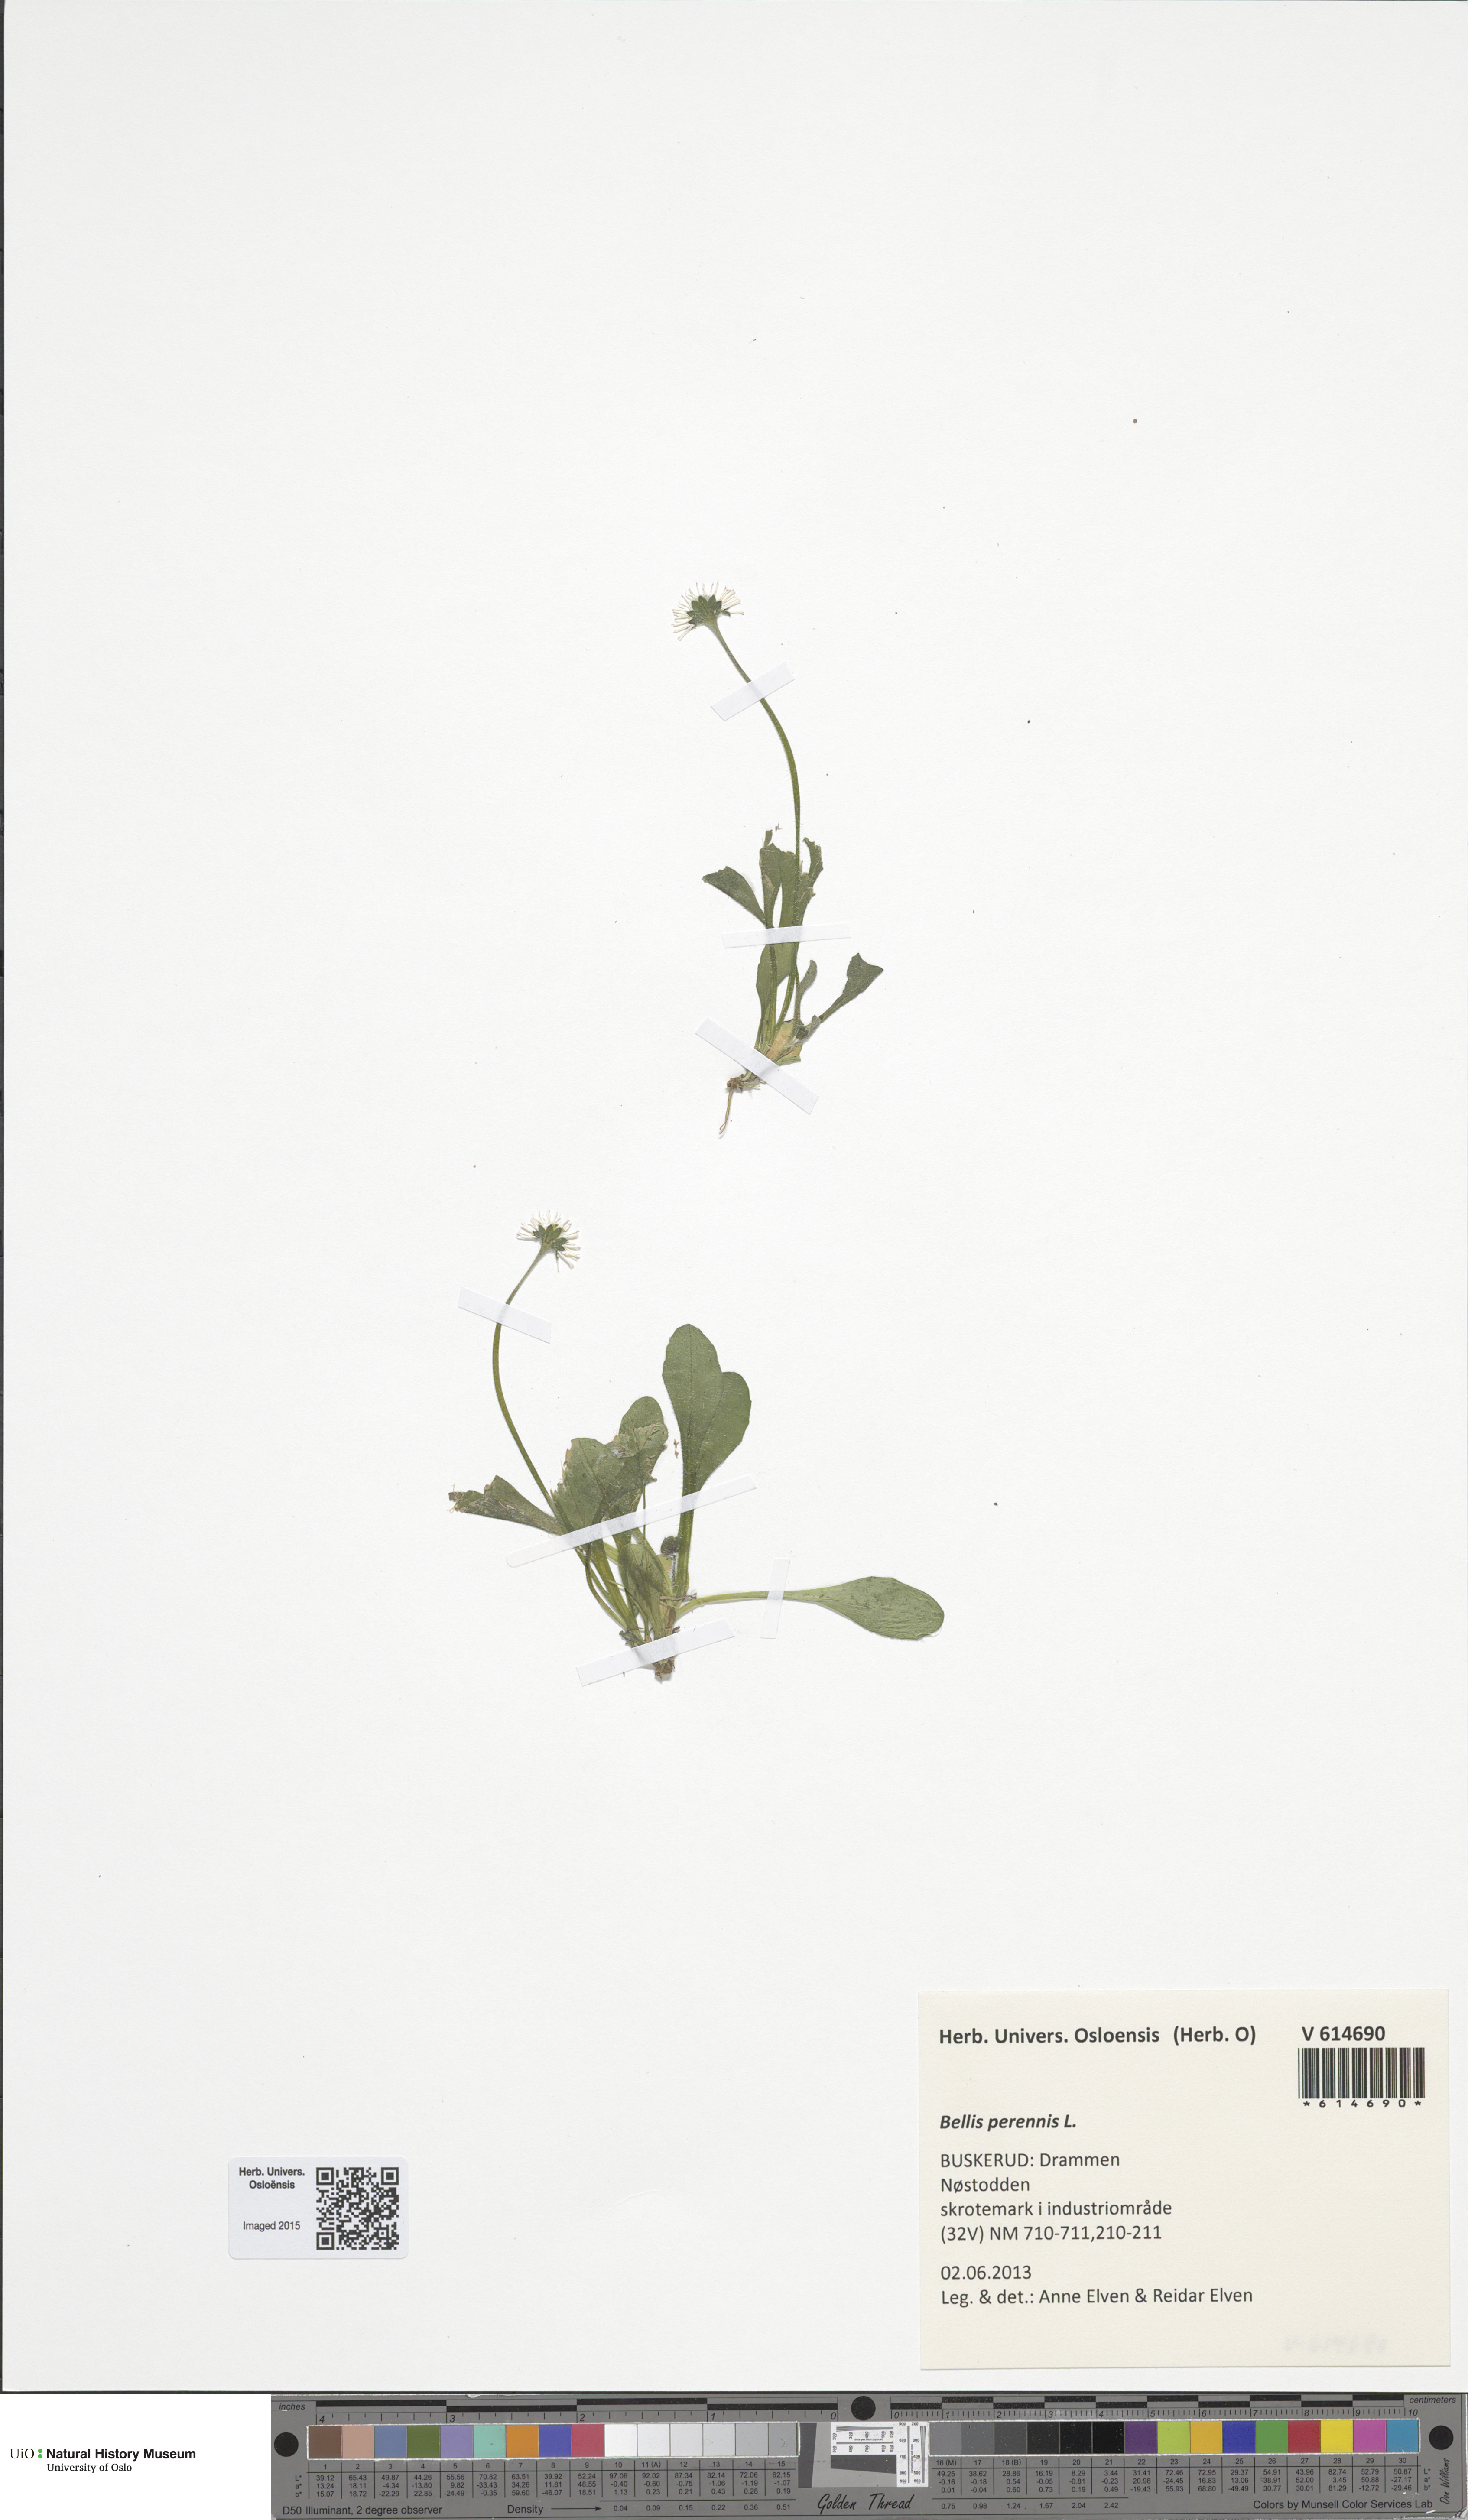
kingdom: Plantae
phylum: Tracheophyta
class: Magnoliopsida
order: Asterales
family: Asteraceae
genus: Bellis
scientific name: Bellis perennis
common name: Lawndaisy
